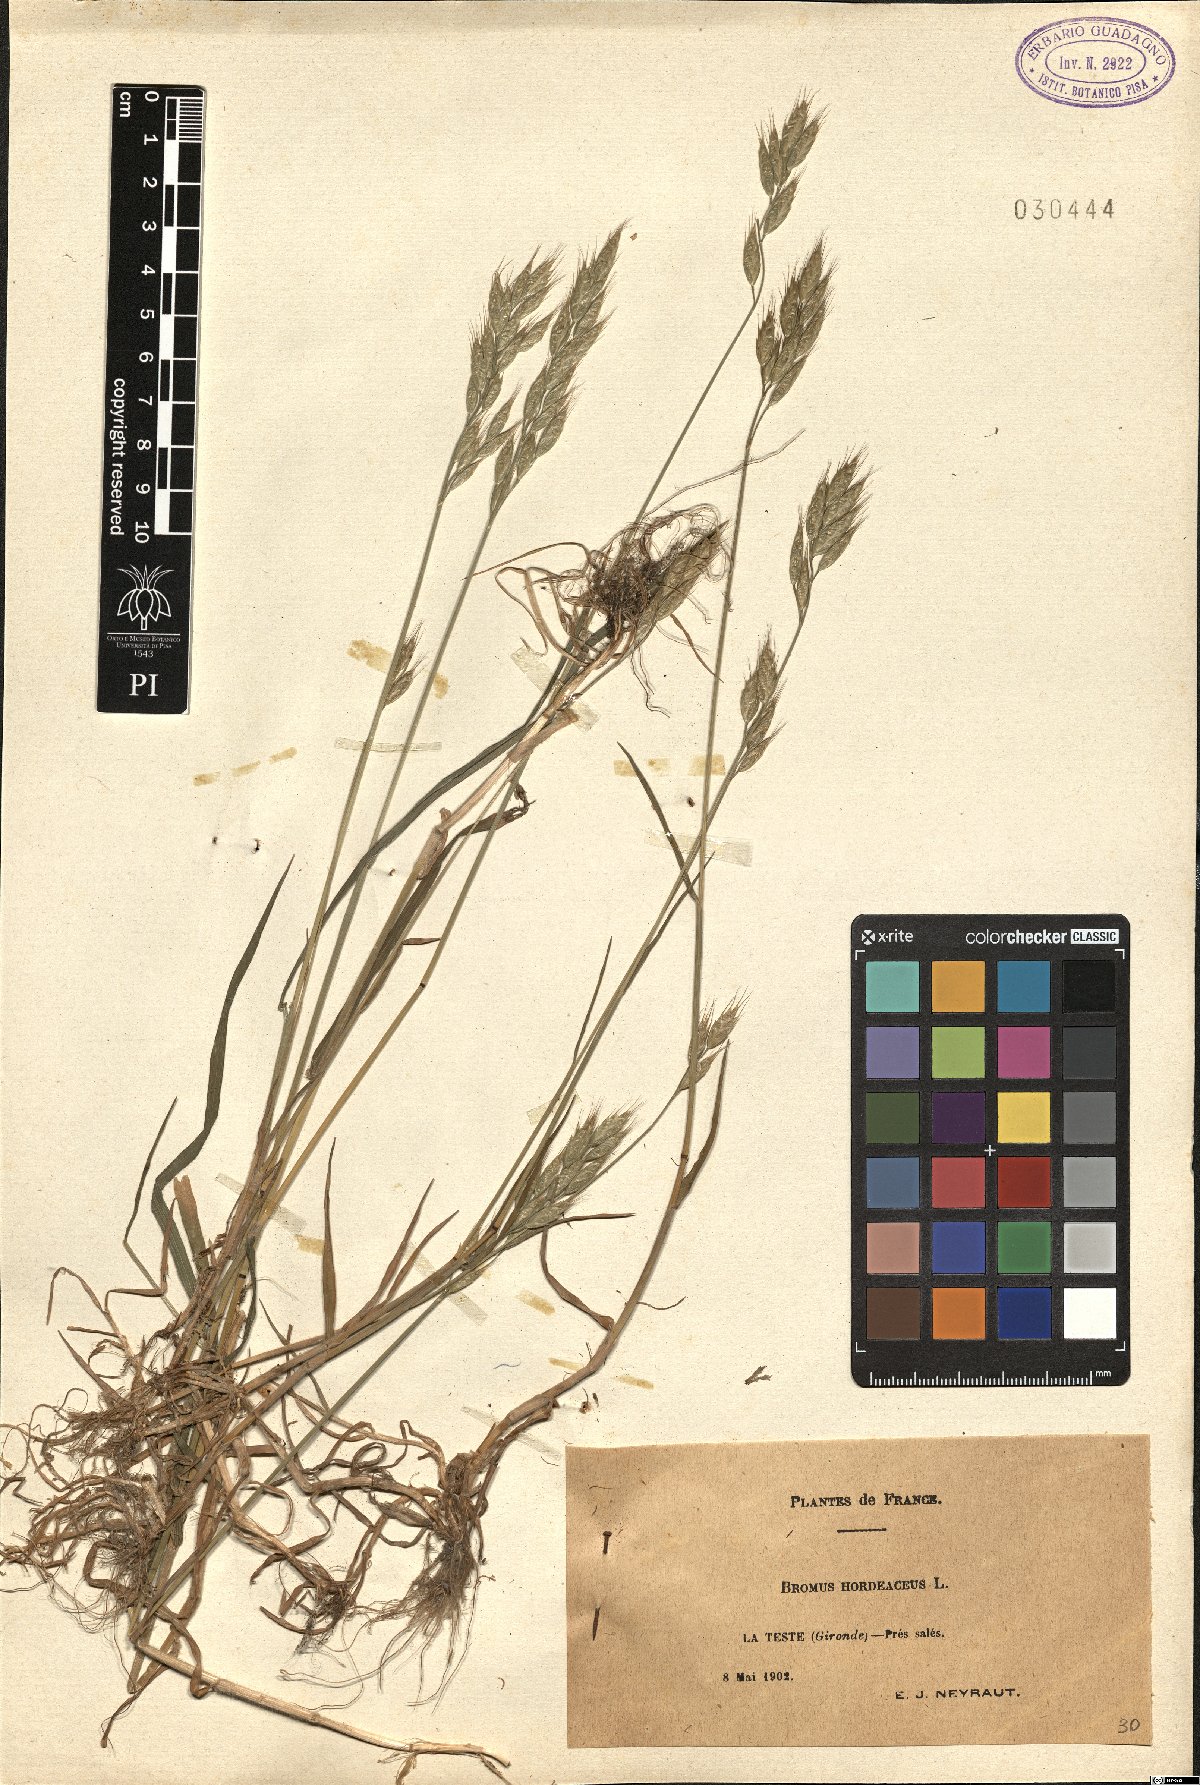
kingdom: Plantae
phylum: Tracheophyta
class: Liliopsida
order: Poales
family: Poaceae
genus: Bromus
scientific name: Bromus hordeaceus
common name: Soft brome
